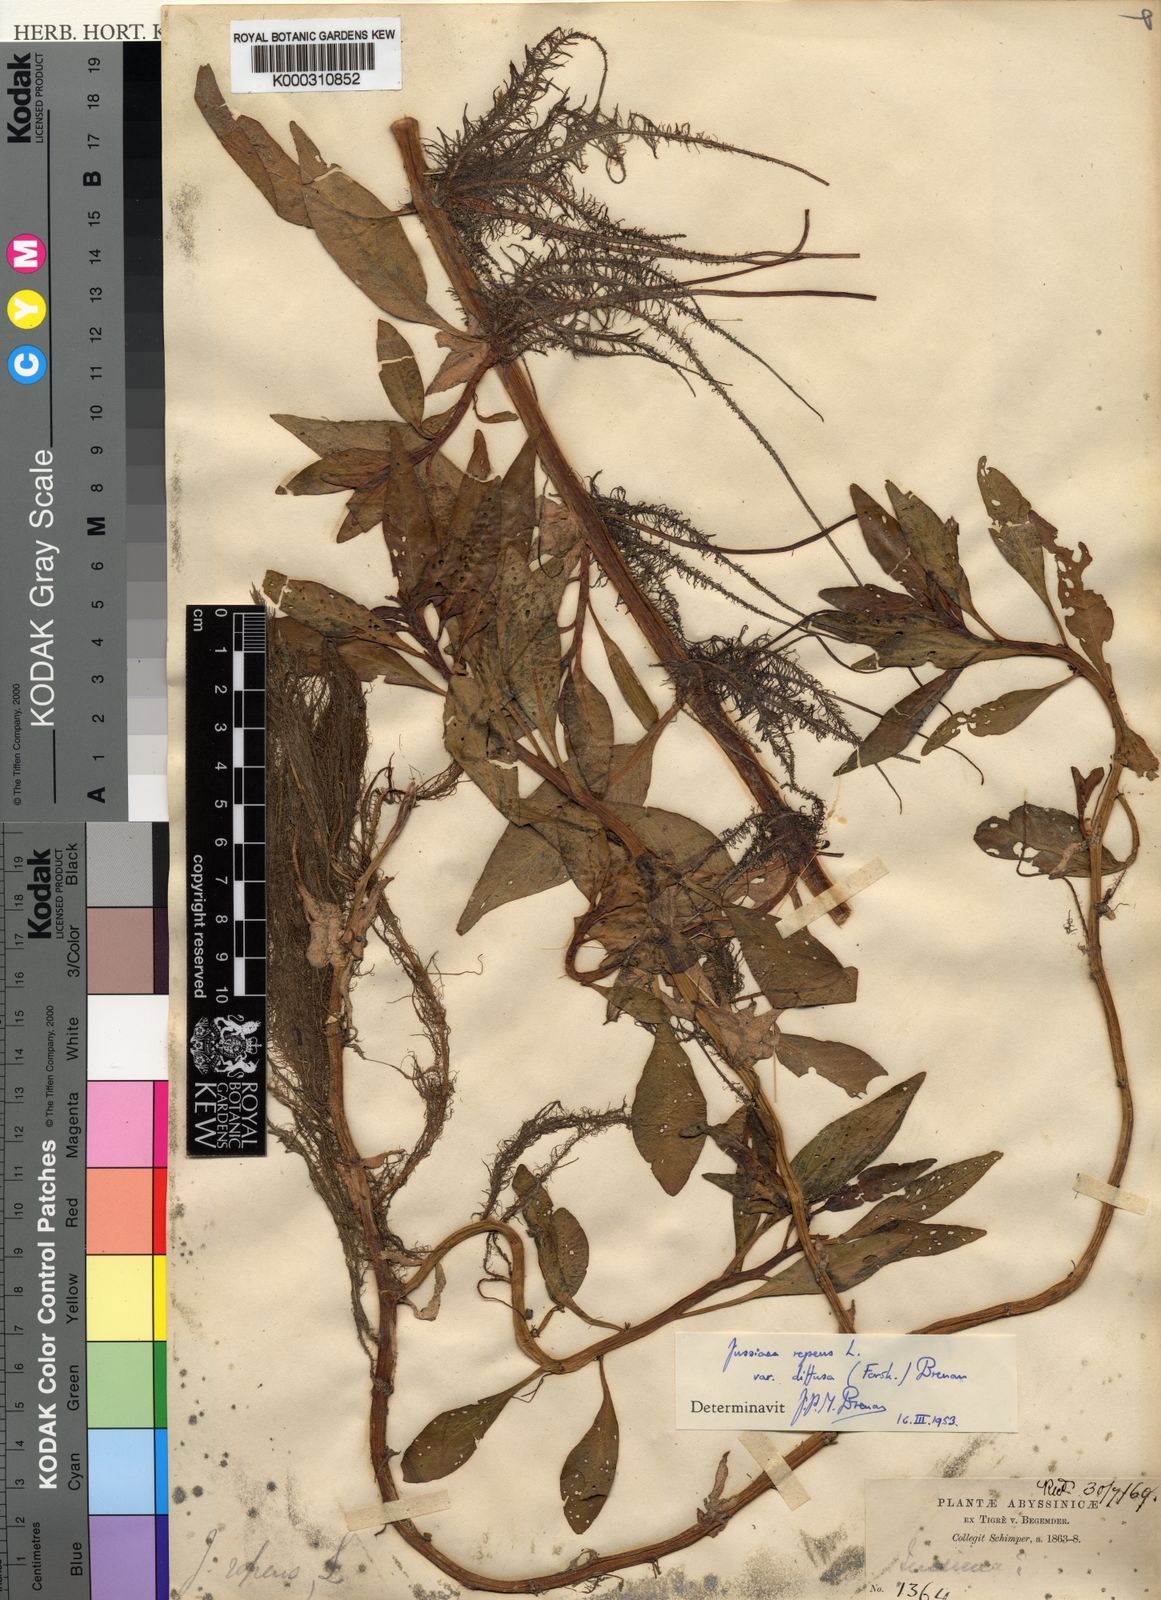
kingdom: Plantae
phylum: Tracheophyta
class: Magnoliopsida
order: Myrtales
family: Onagraceae
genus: Ludwigia
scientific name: Ludwigia adscendens
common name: Creeping water primrose
